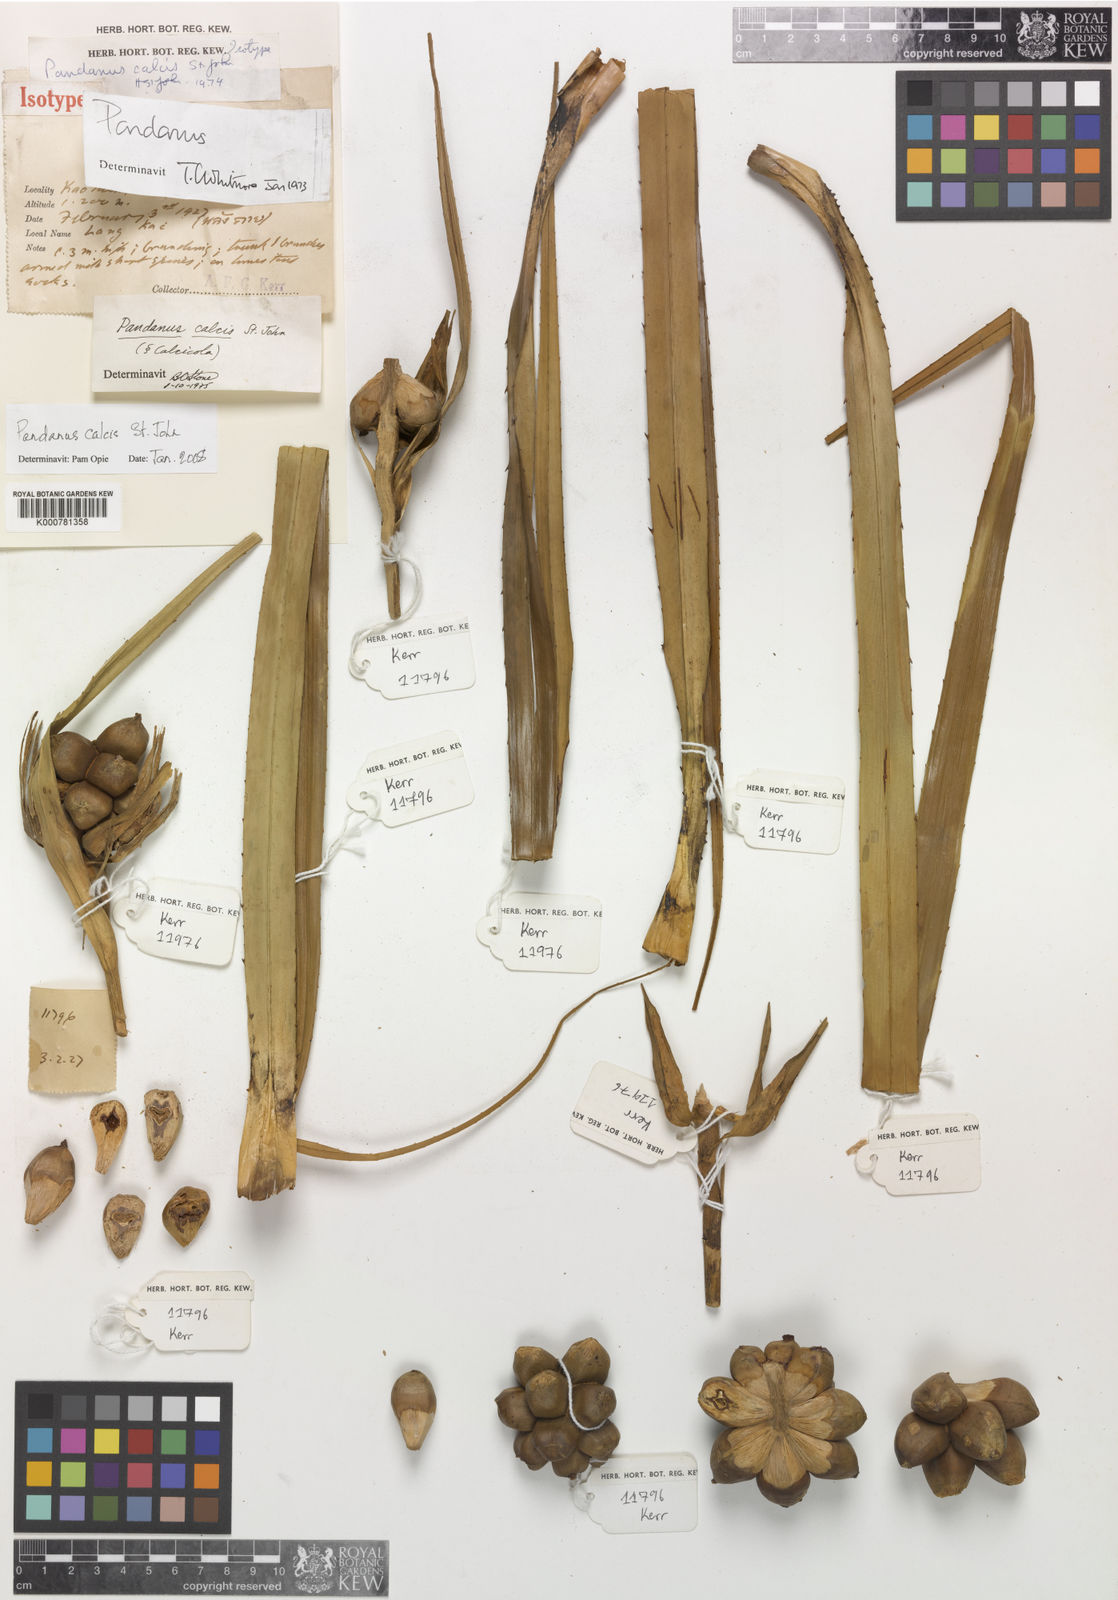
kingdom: Plantae
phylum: Tracheophyta
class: Liliopsida
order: Pandanales
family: Pandanaceae
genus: Pandanus
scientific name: Pandanus calcis
